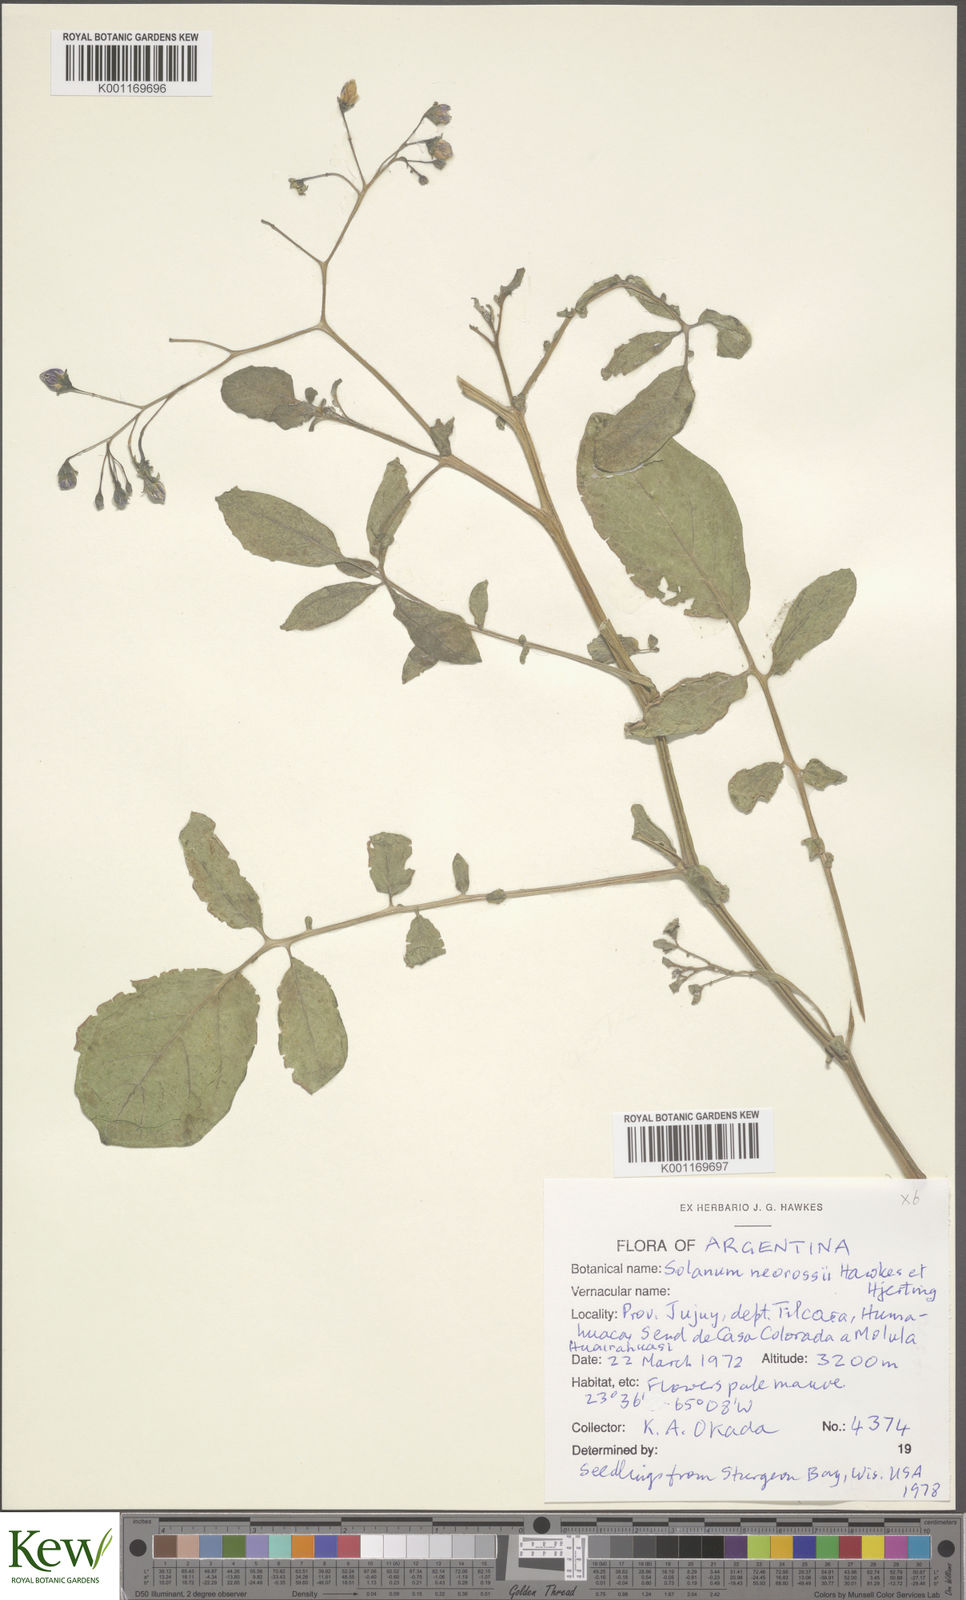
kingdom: Plantae
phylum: Tracheophyta
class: Magnoliopsida
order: Solanales
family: Solanaceae
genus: Solanum
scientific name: Solanum neorossii
